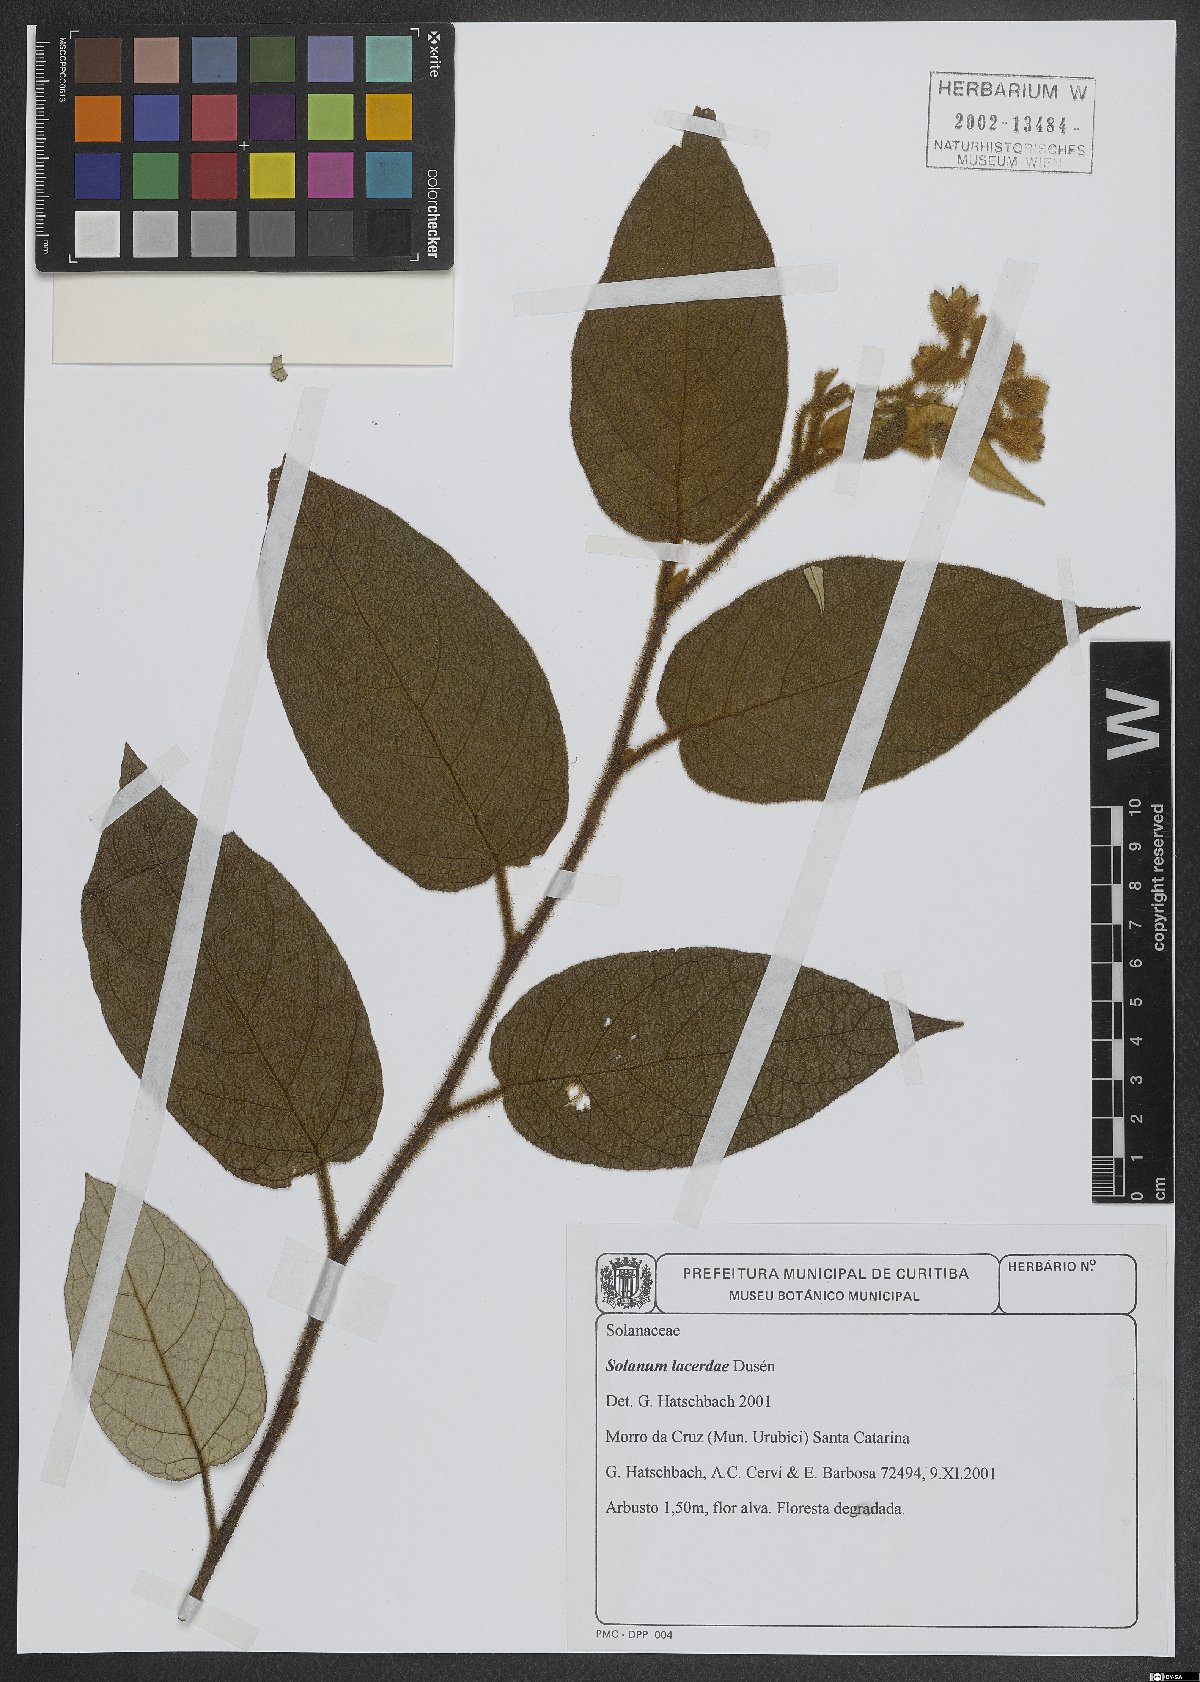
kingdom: Plantae
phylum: Tracheophyta
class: Magnoliopsida
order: Solanales
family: Solanaceae
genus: Solanum
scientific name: Solanum lacerdae
